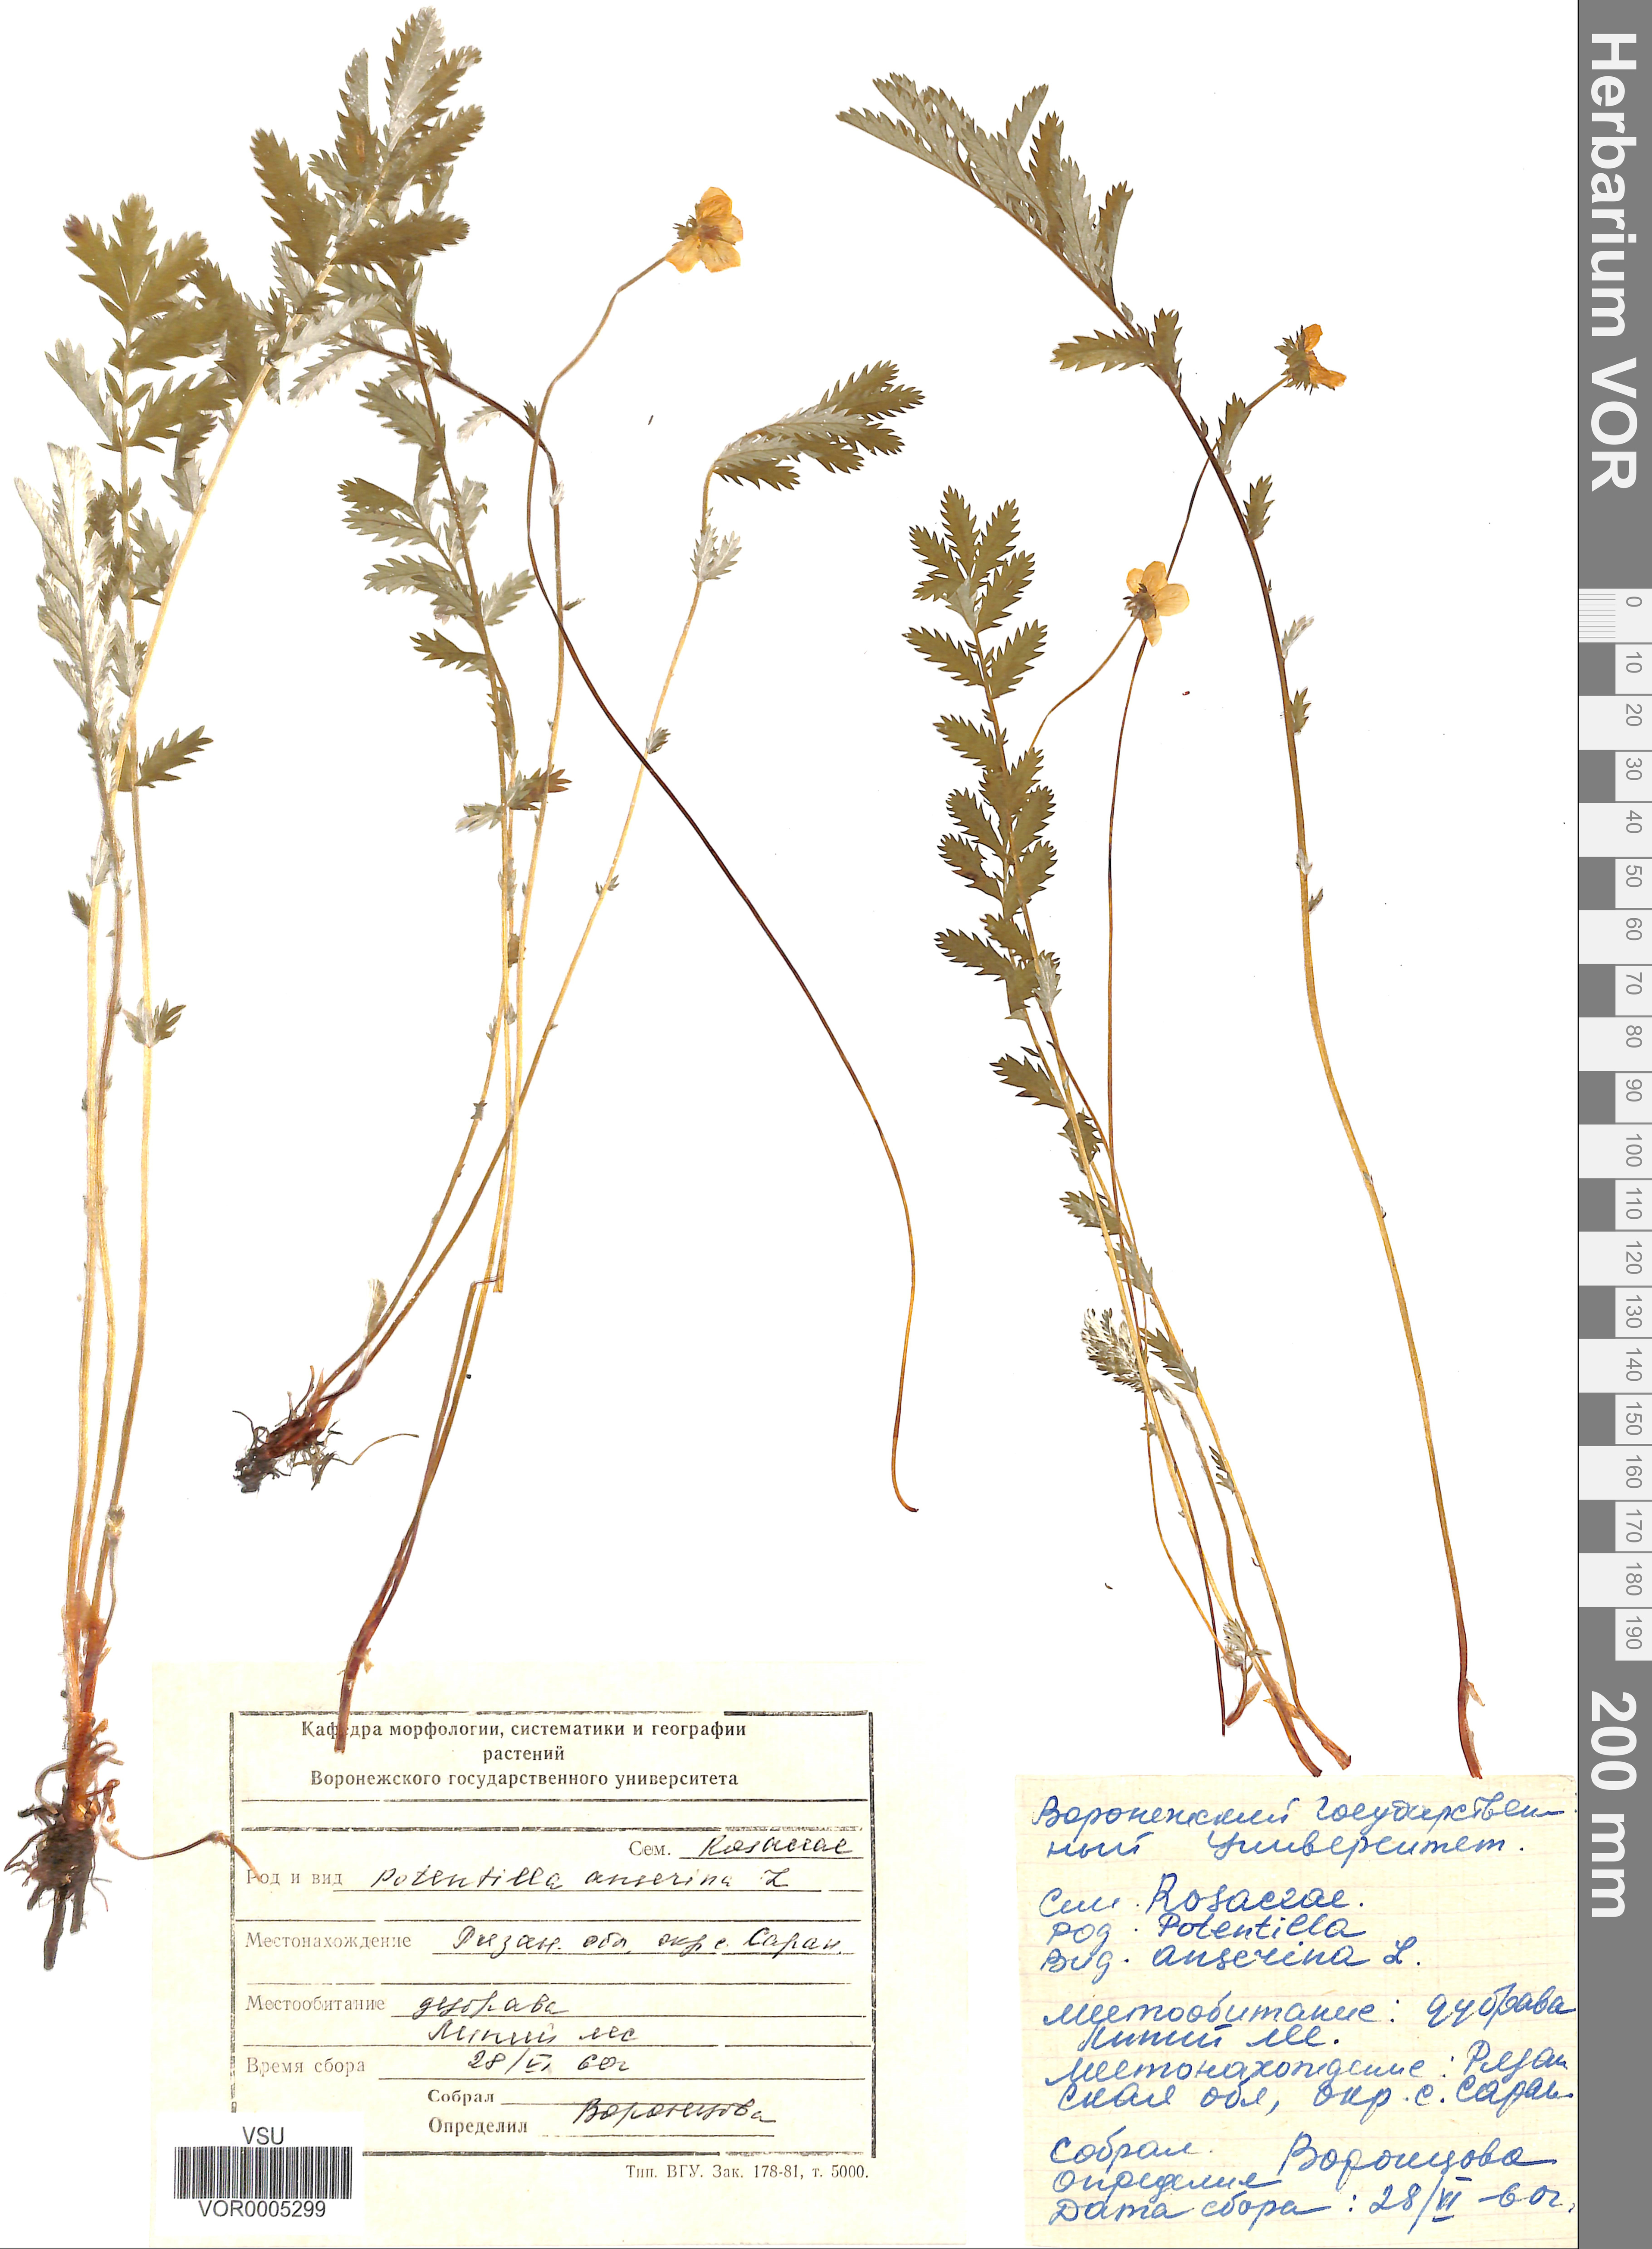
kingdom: Plantae
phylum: Tracheophyta
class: Magnoliopsida
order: Rosales
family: Rosaceae
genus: Argentina
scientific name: Argentina anserina
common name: Common silverweed
